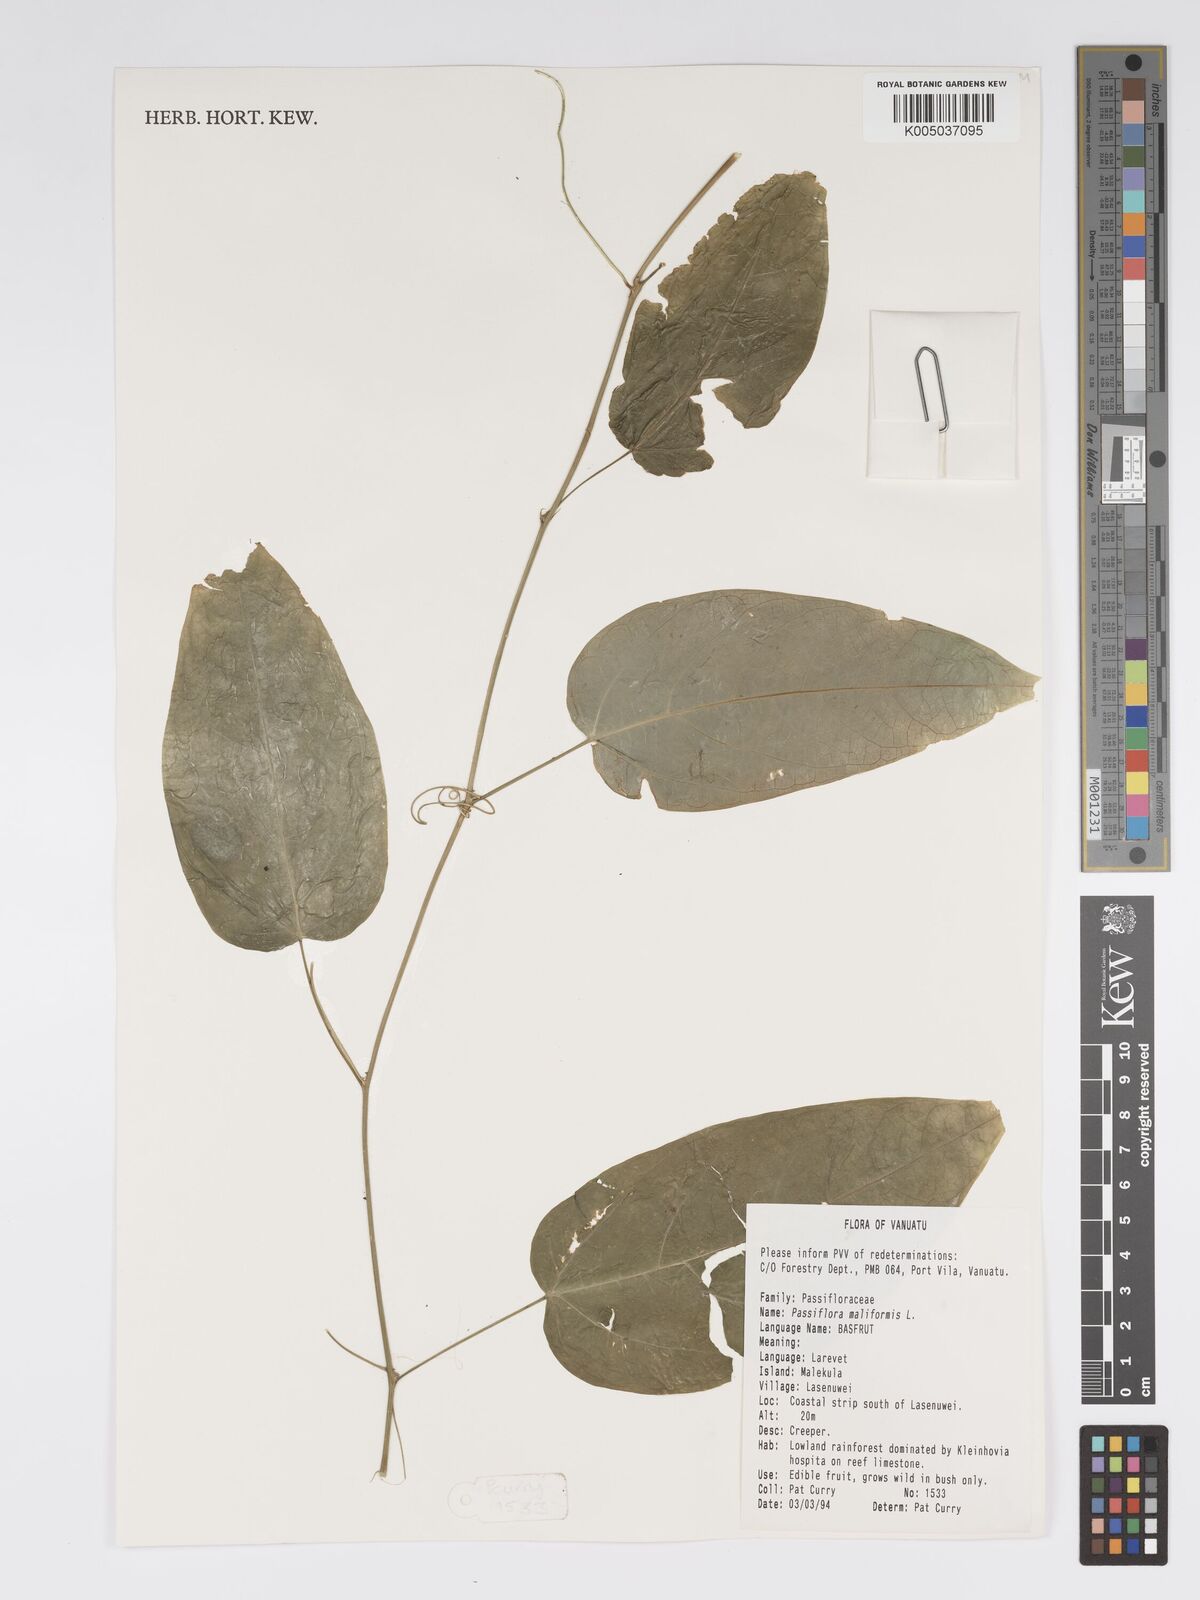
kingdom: Plantae
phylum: Tracheophyta
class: Magnoliopsida
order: Malpighiales
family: Passifloraceae
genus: Passiflora
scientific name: Passiflora
